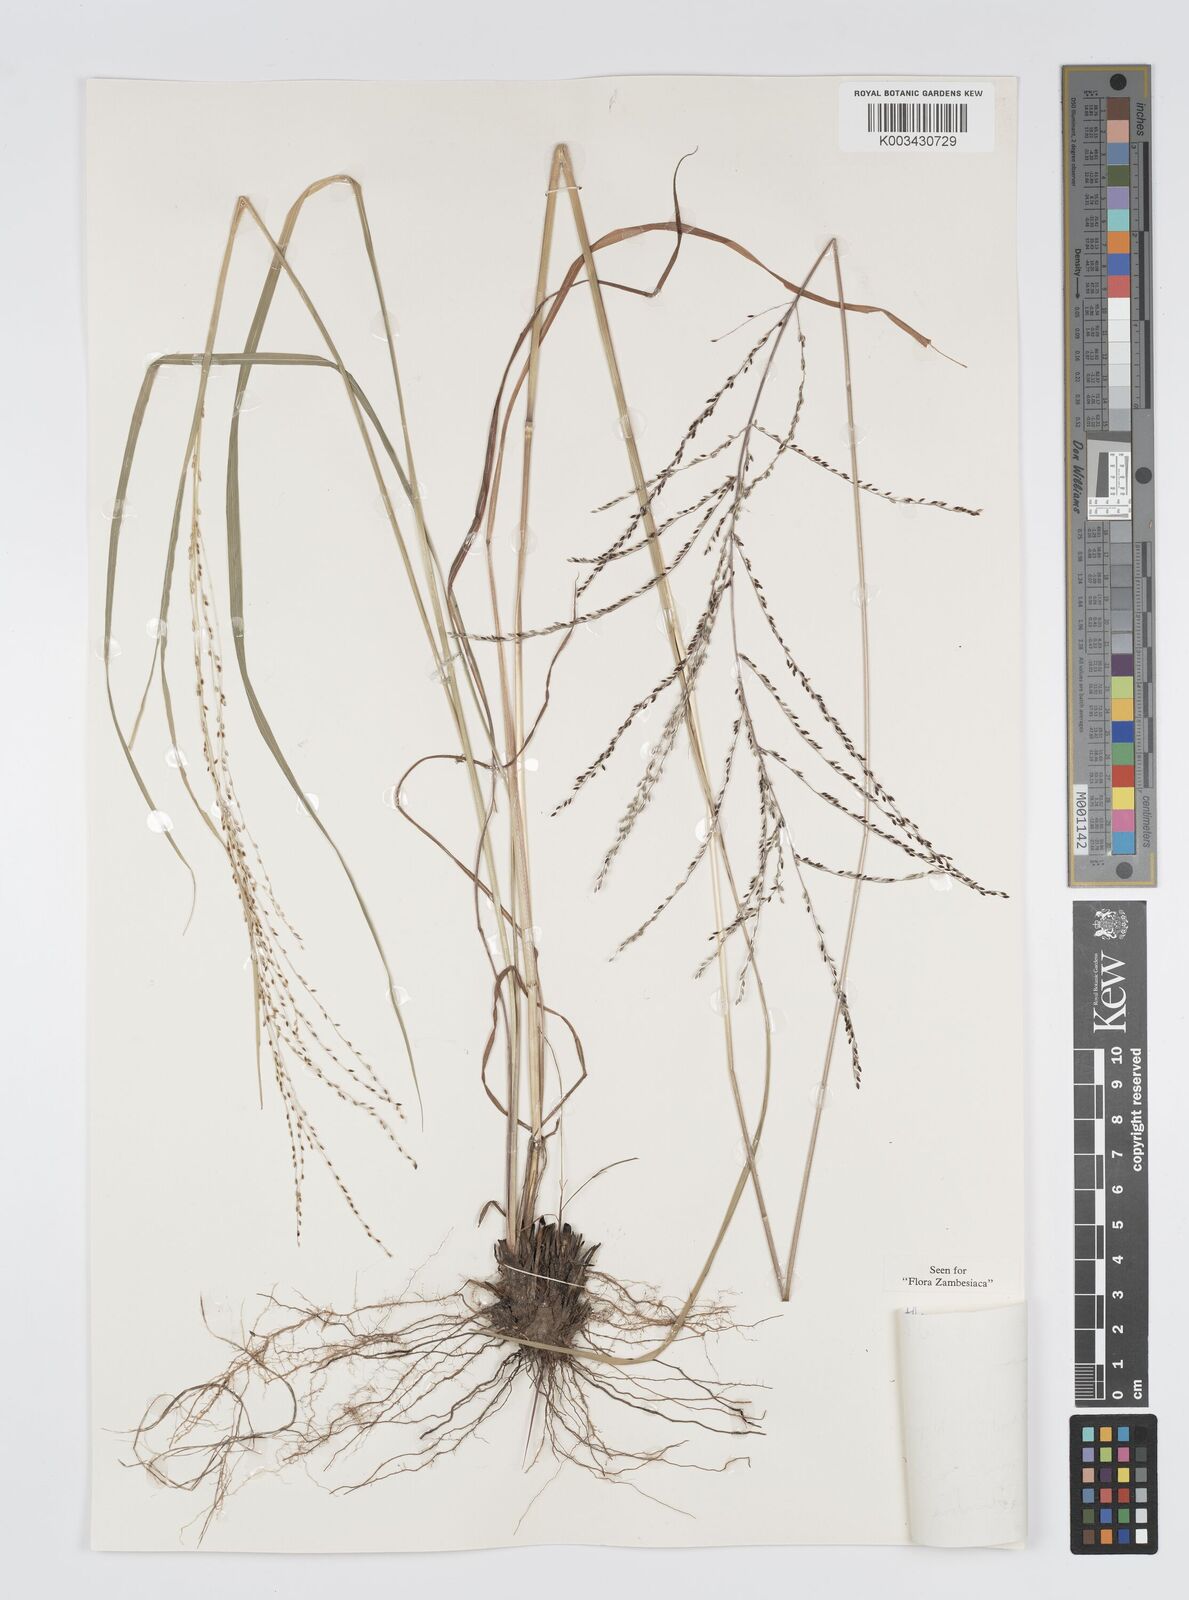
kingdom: Plantae
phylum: Tracheophyta
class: Liliopsida
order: Poales
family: Poaceae
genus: Digitaria
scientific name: Digitaria diagonalis
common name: Brown-seed finger grass
